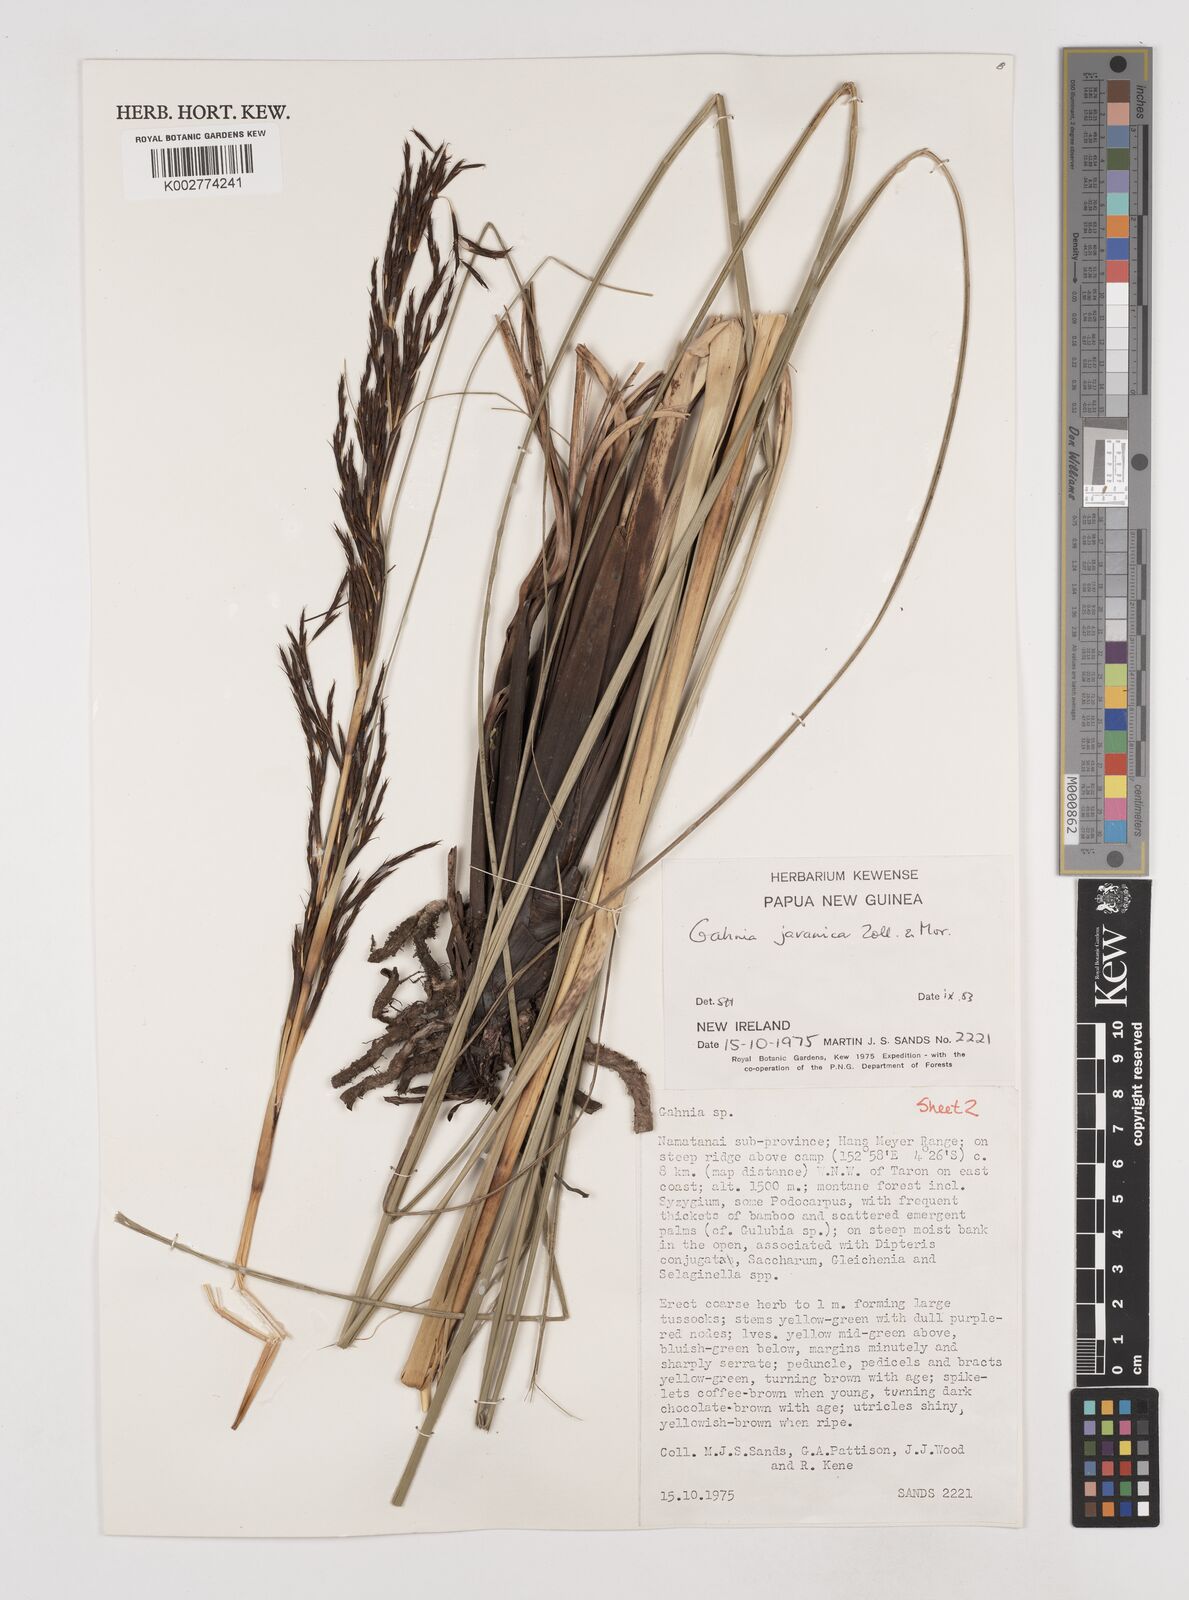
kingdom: Plantae
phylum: Tracheophyta
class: Liliopsida
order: Poales
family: Cyperaceae
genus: Gahnia
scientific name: Gahnia javanica
